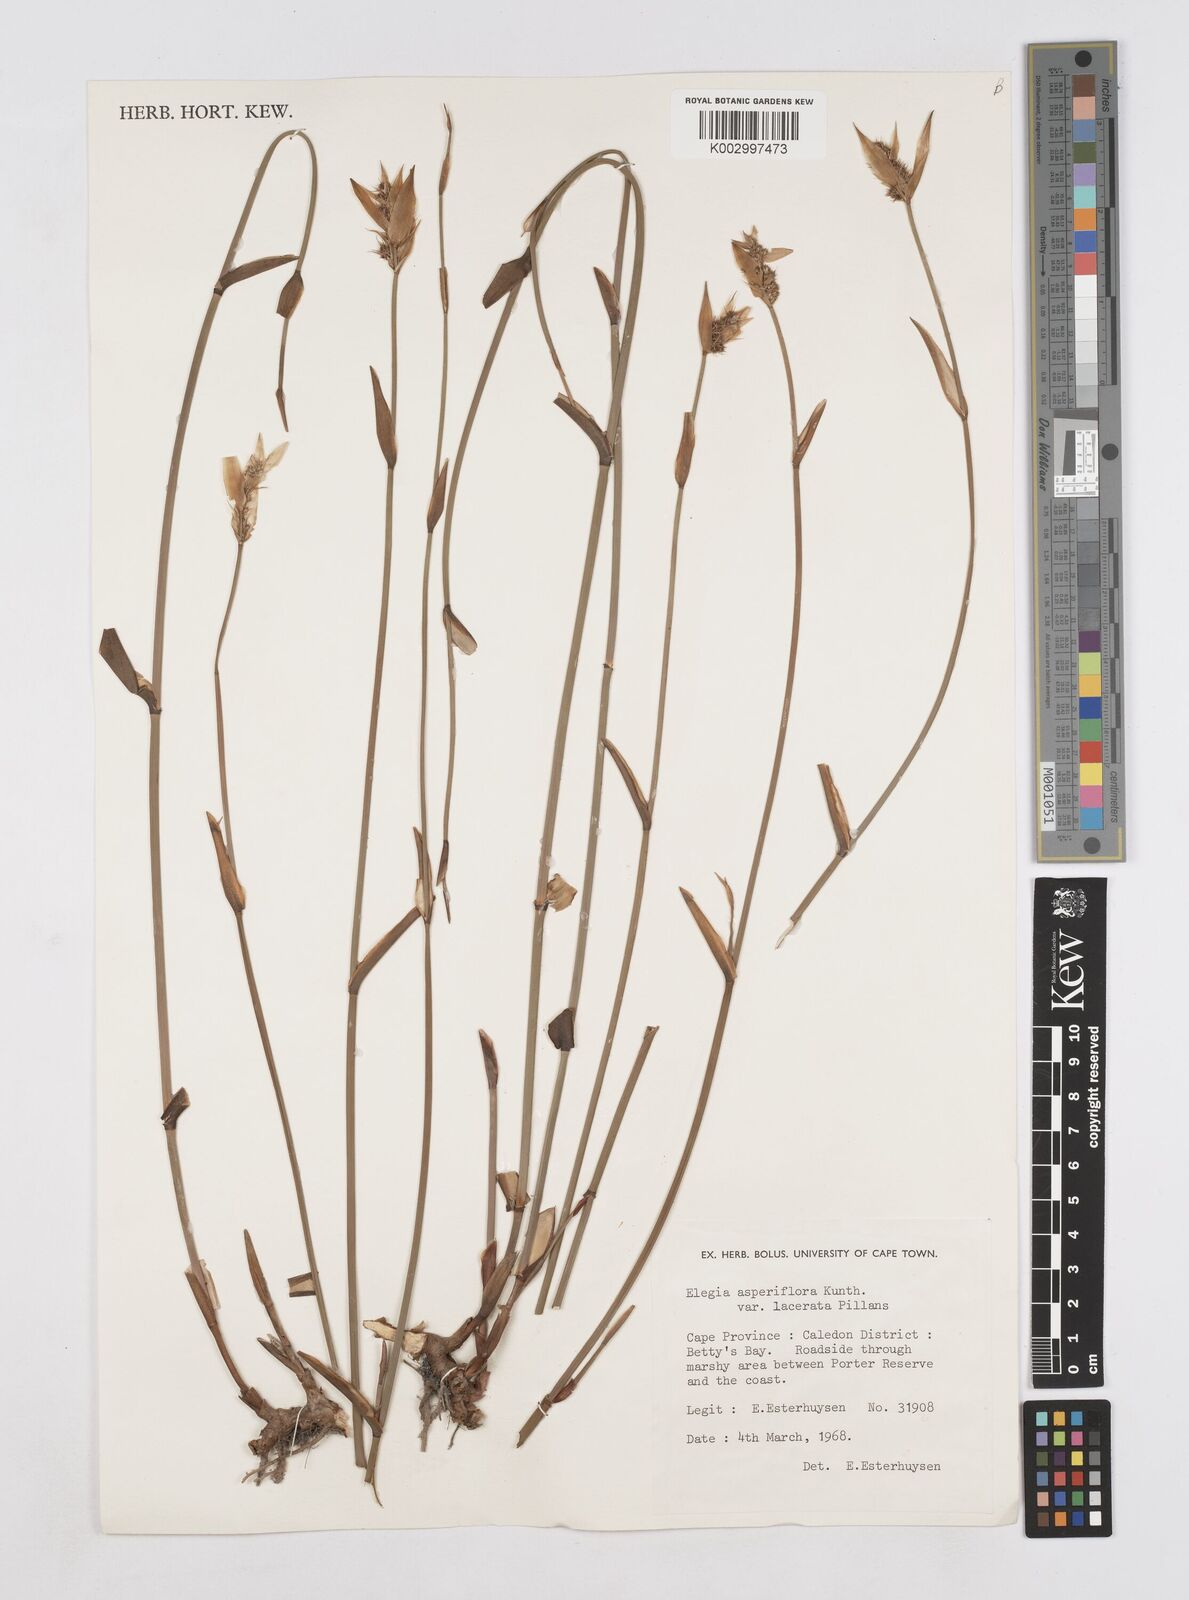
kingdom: Plantae
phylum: Tracheophyta
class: Liliopsida
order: Poales
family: Restionaceae
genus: Elegia
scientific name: Elegia asperiflora
